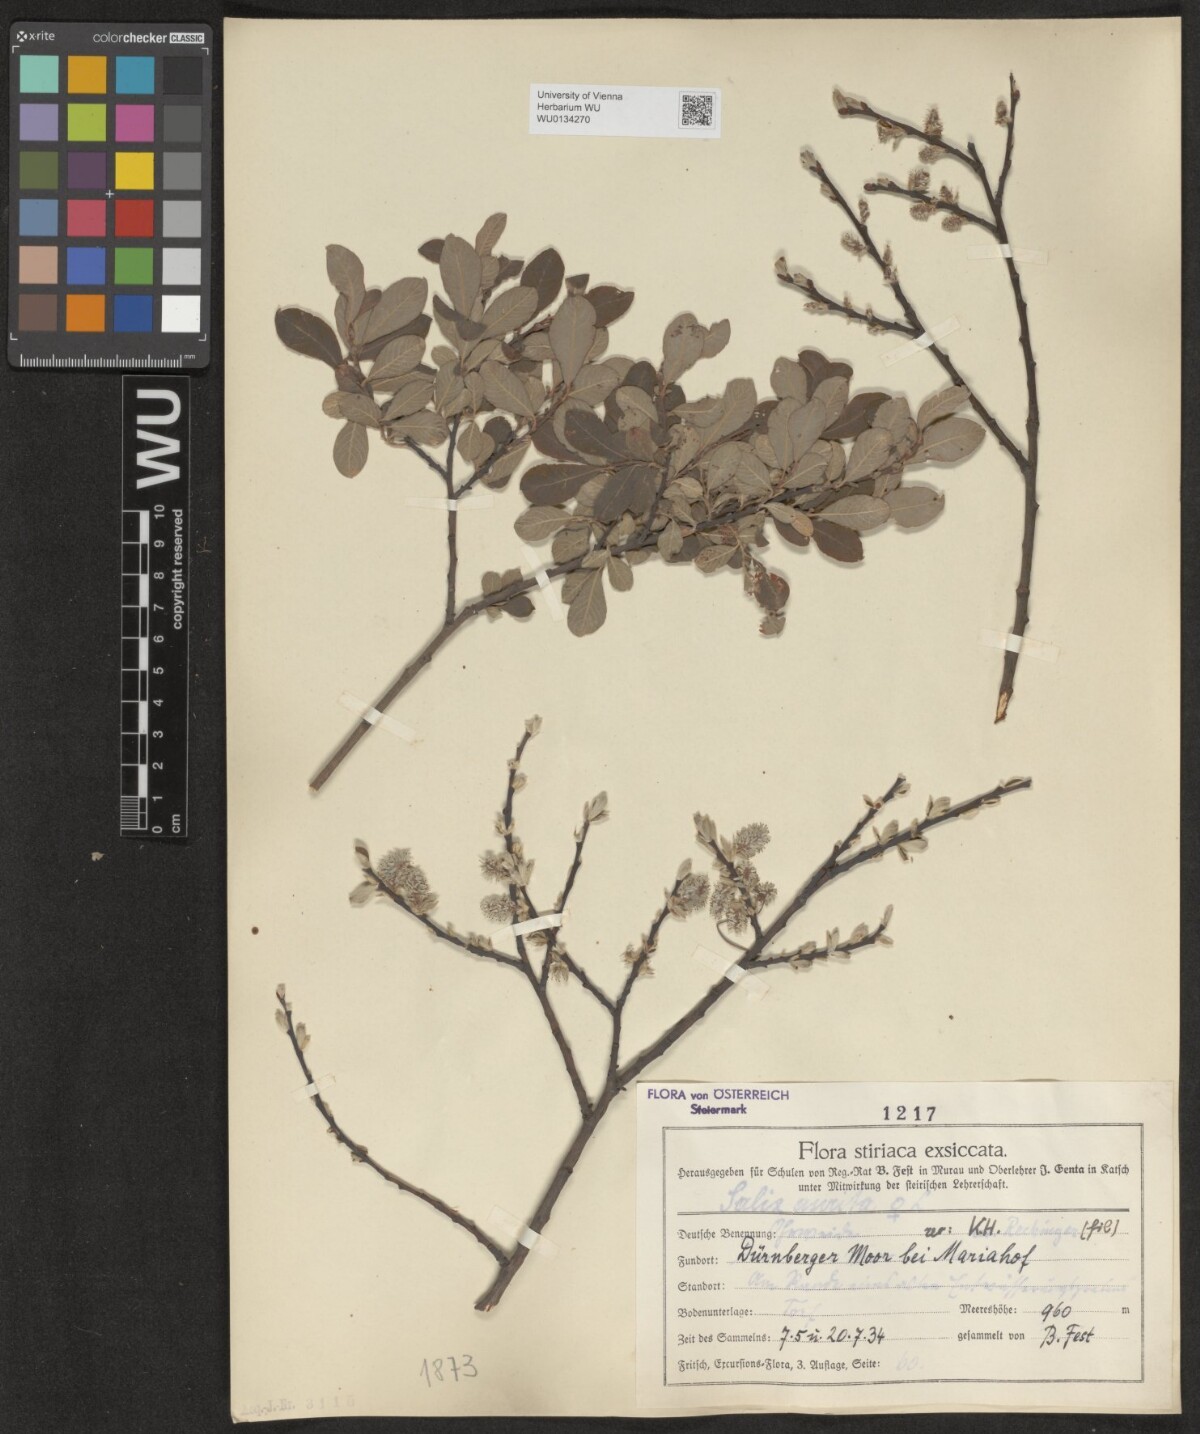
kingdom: Plantae
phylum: Tracheophyta
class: Magnoliopsida
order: Malpighiales
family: Salicaceae
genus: Salix
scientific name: Salix aurita
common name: Eared willow
